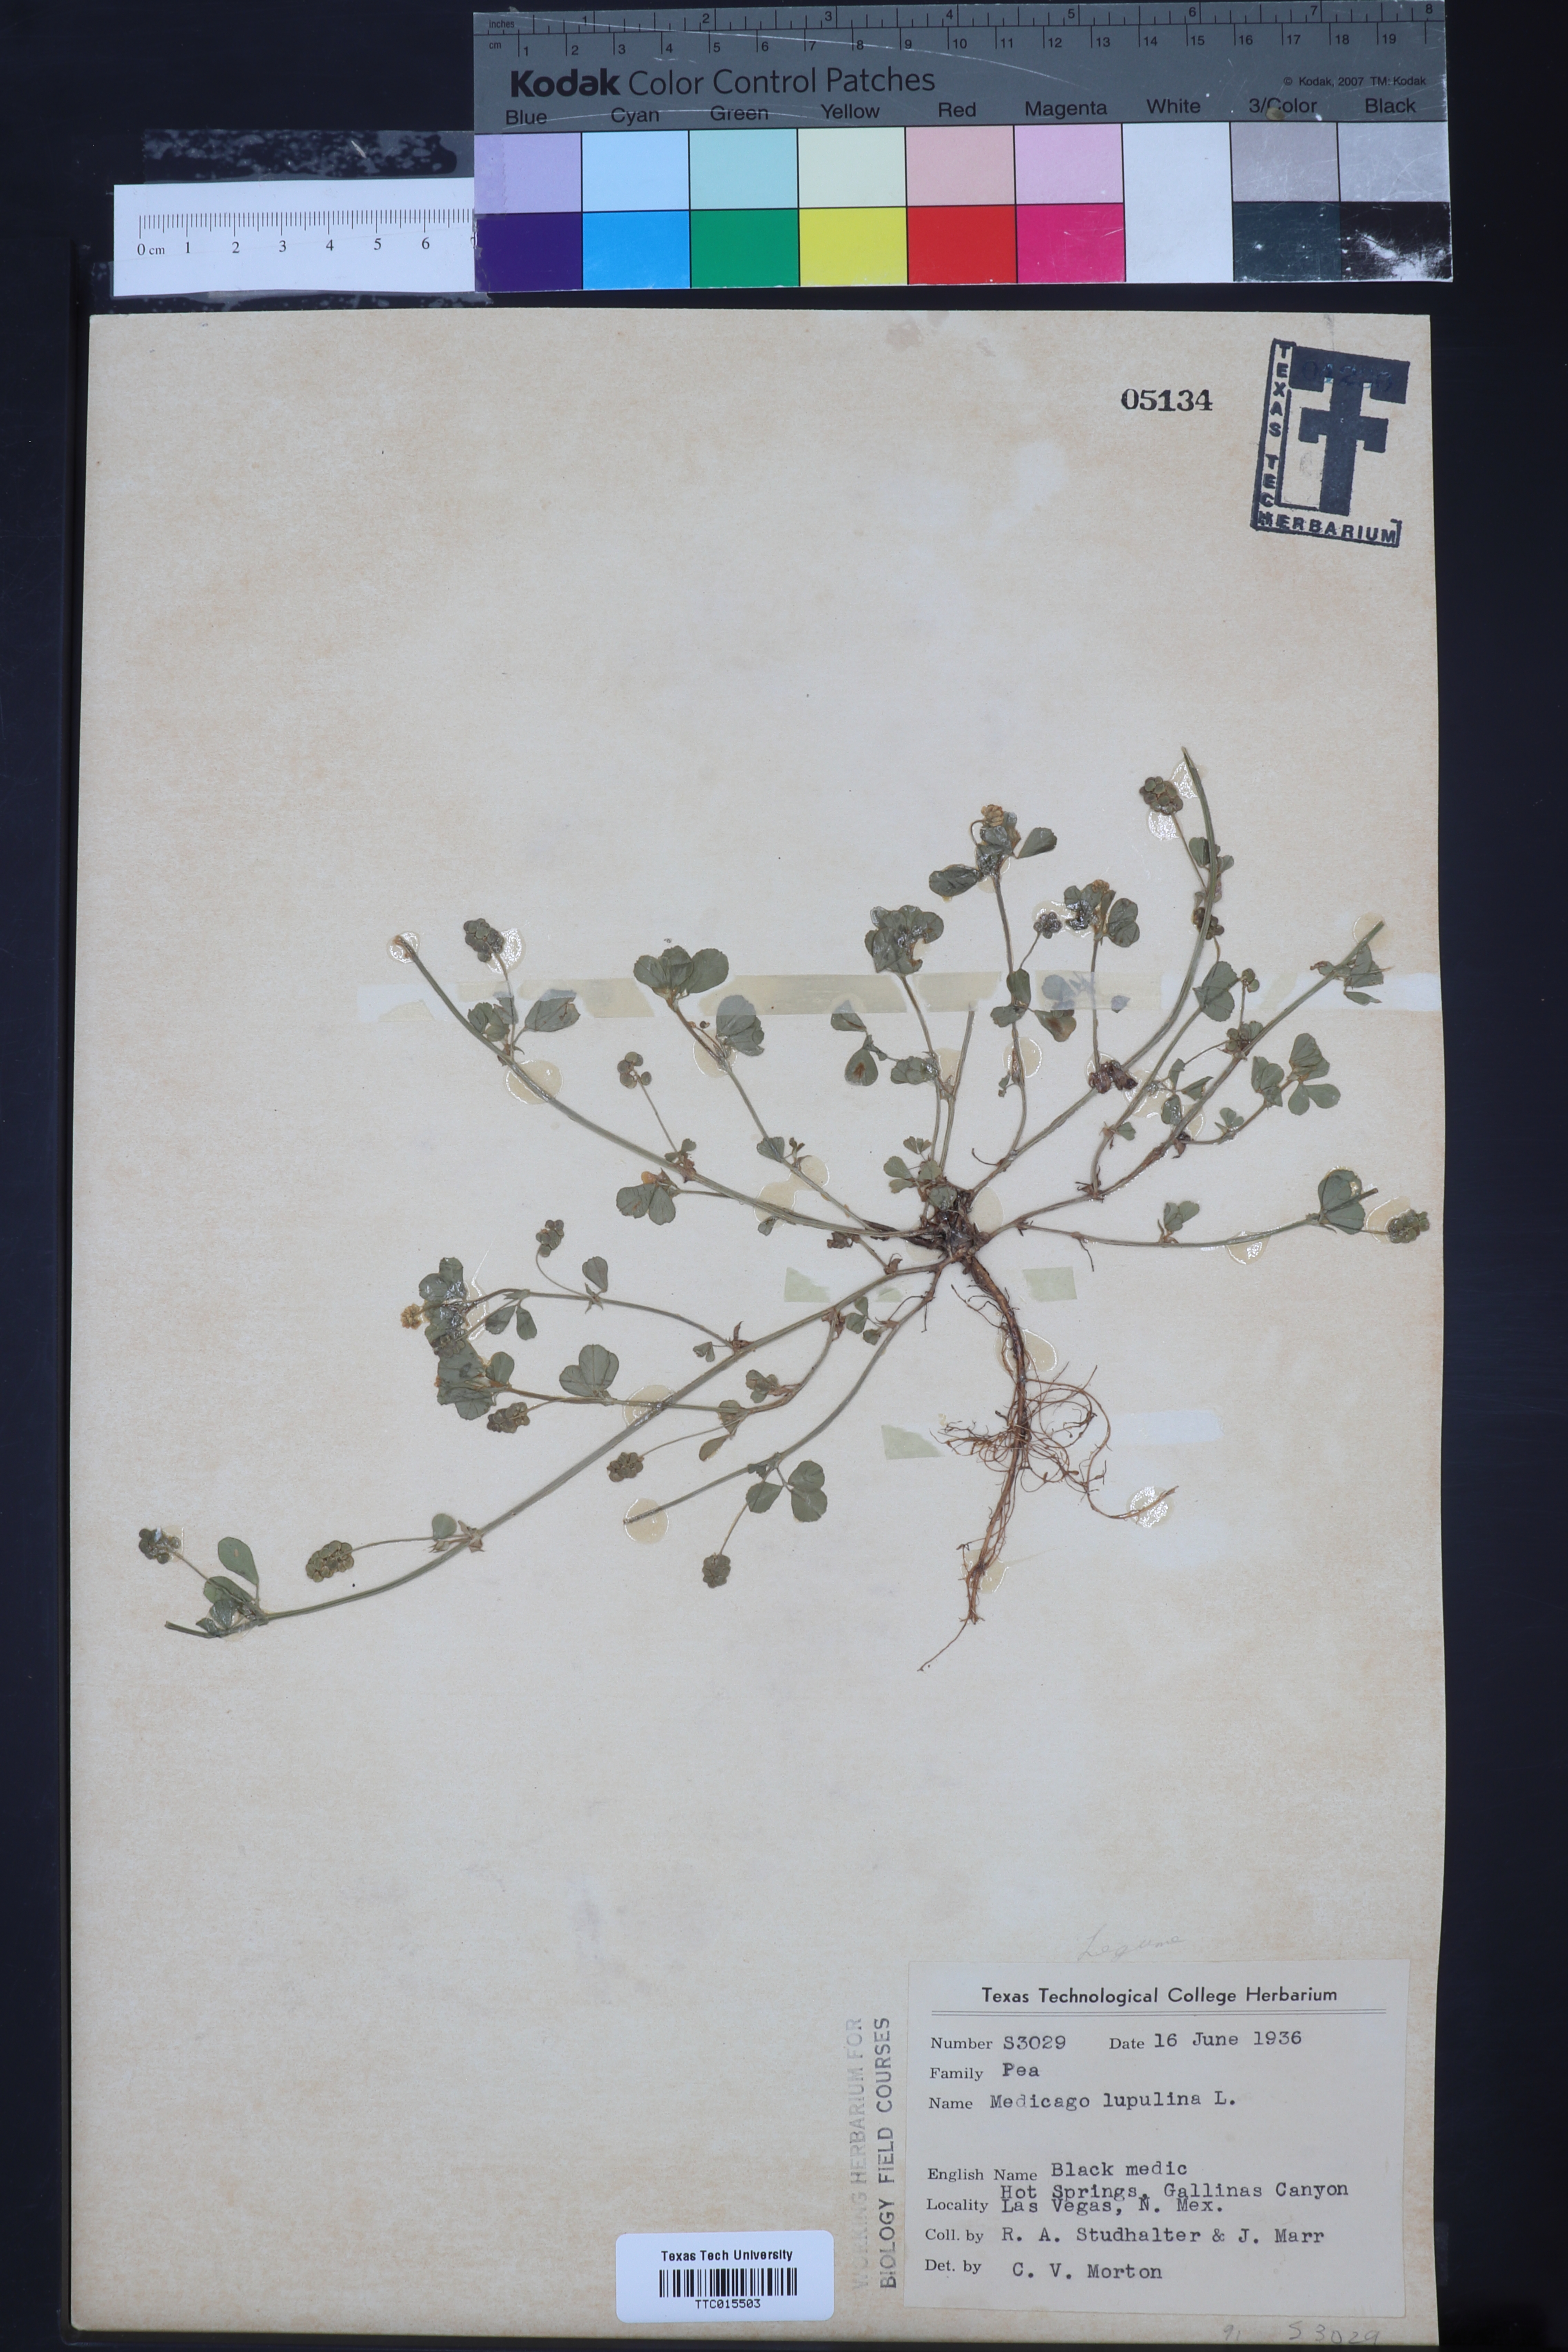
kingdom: Plantae
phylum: Tracheophyta
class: Magnoliopsida
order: Fabales
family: Fabaceae
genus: Medicago
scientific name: Medicago lupulina
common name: Black medick
